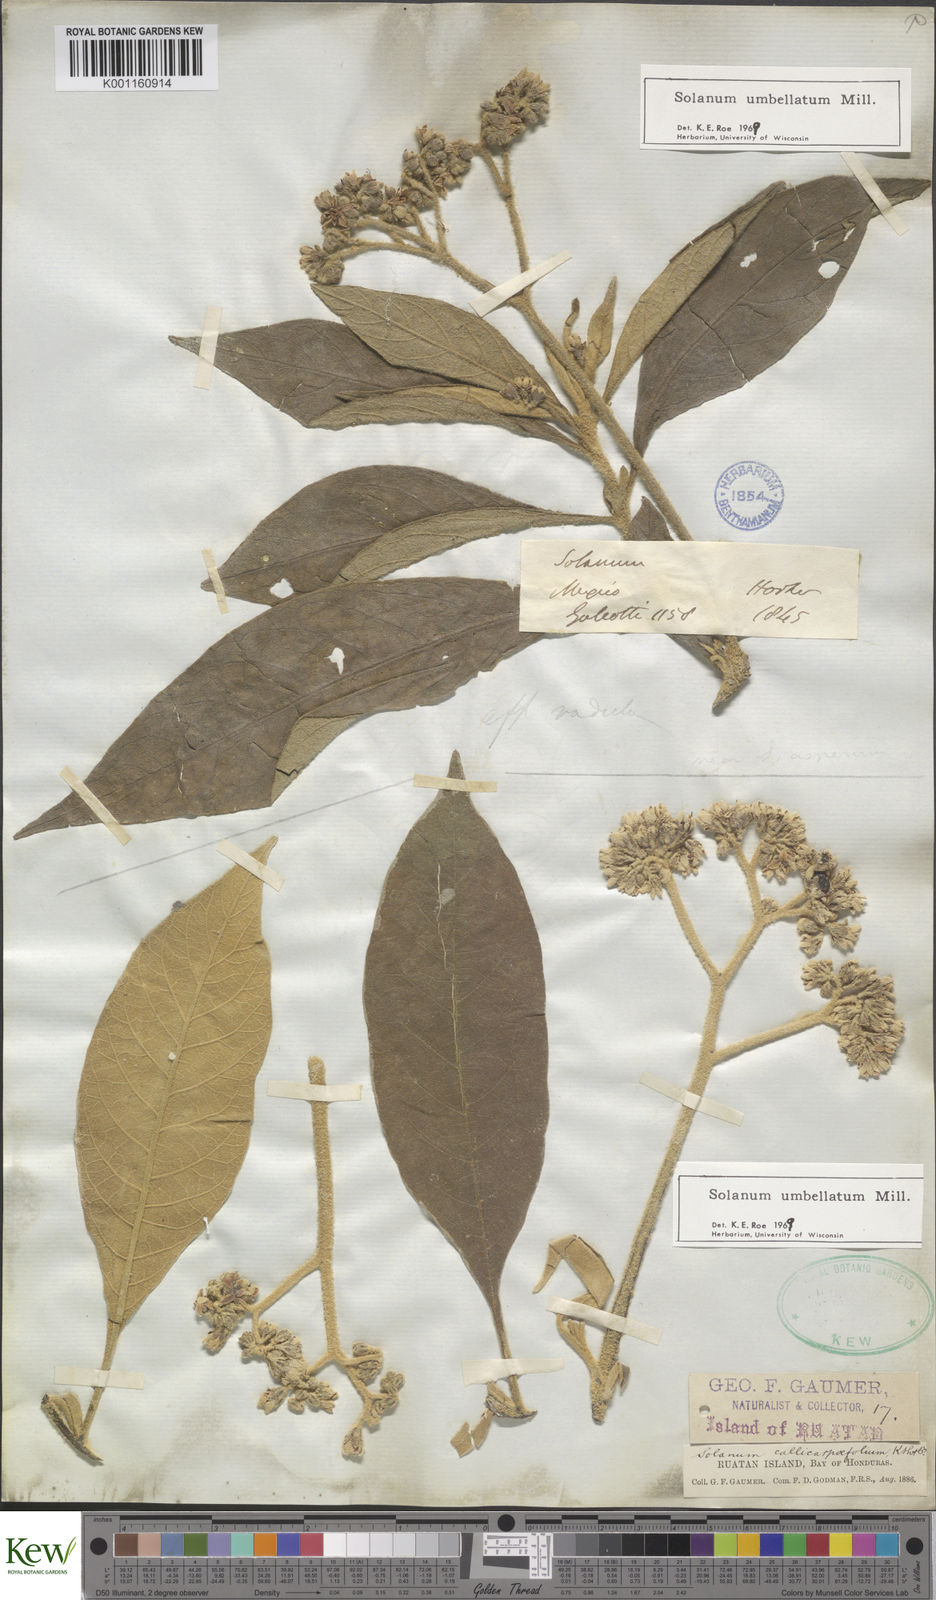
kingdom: Plantae
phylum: Tracheophyta
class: Magnoliopsida
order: Solanales
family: Solanaceae
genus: Solanum
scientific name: Solanum umbellatum
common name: Nightshade
